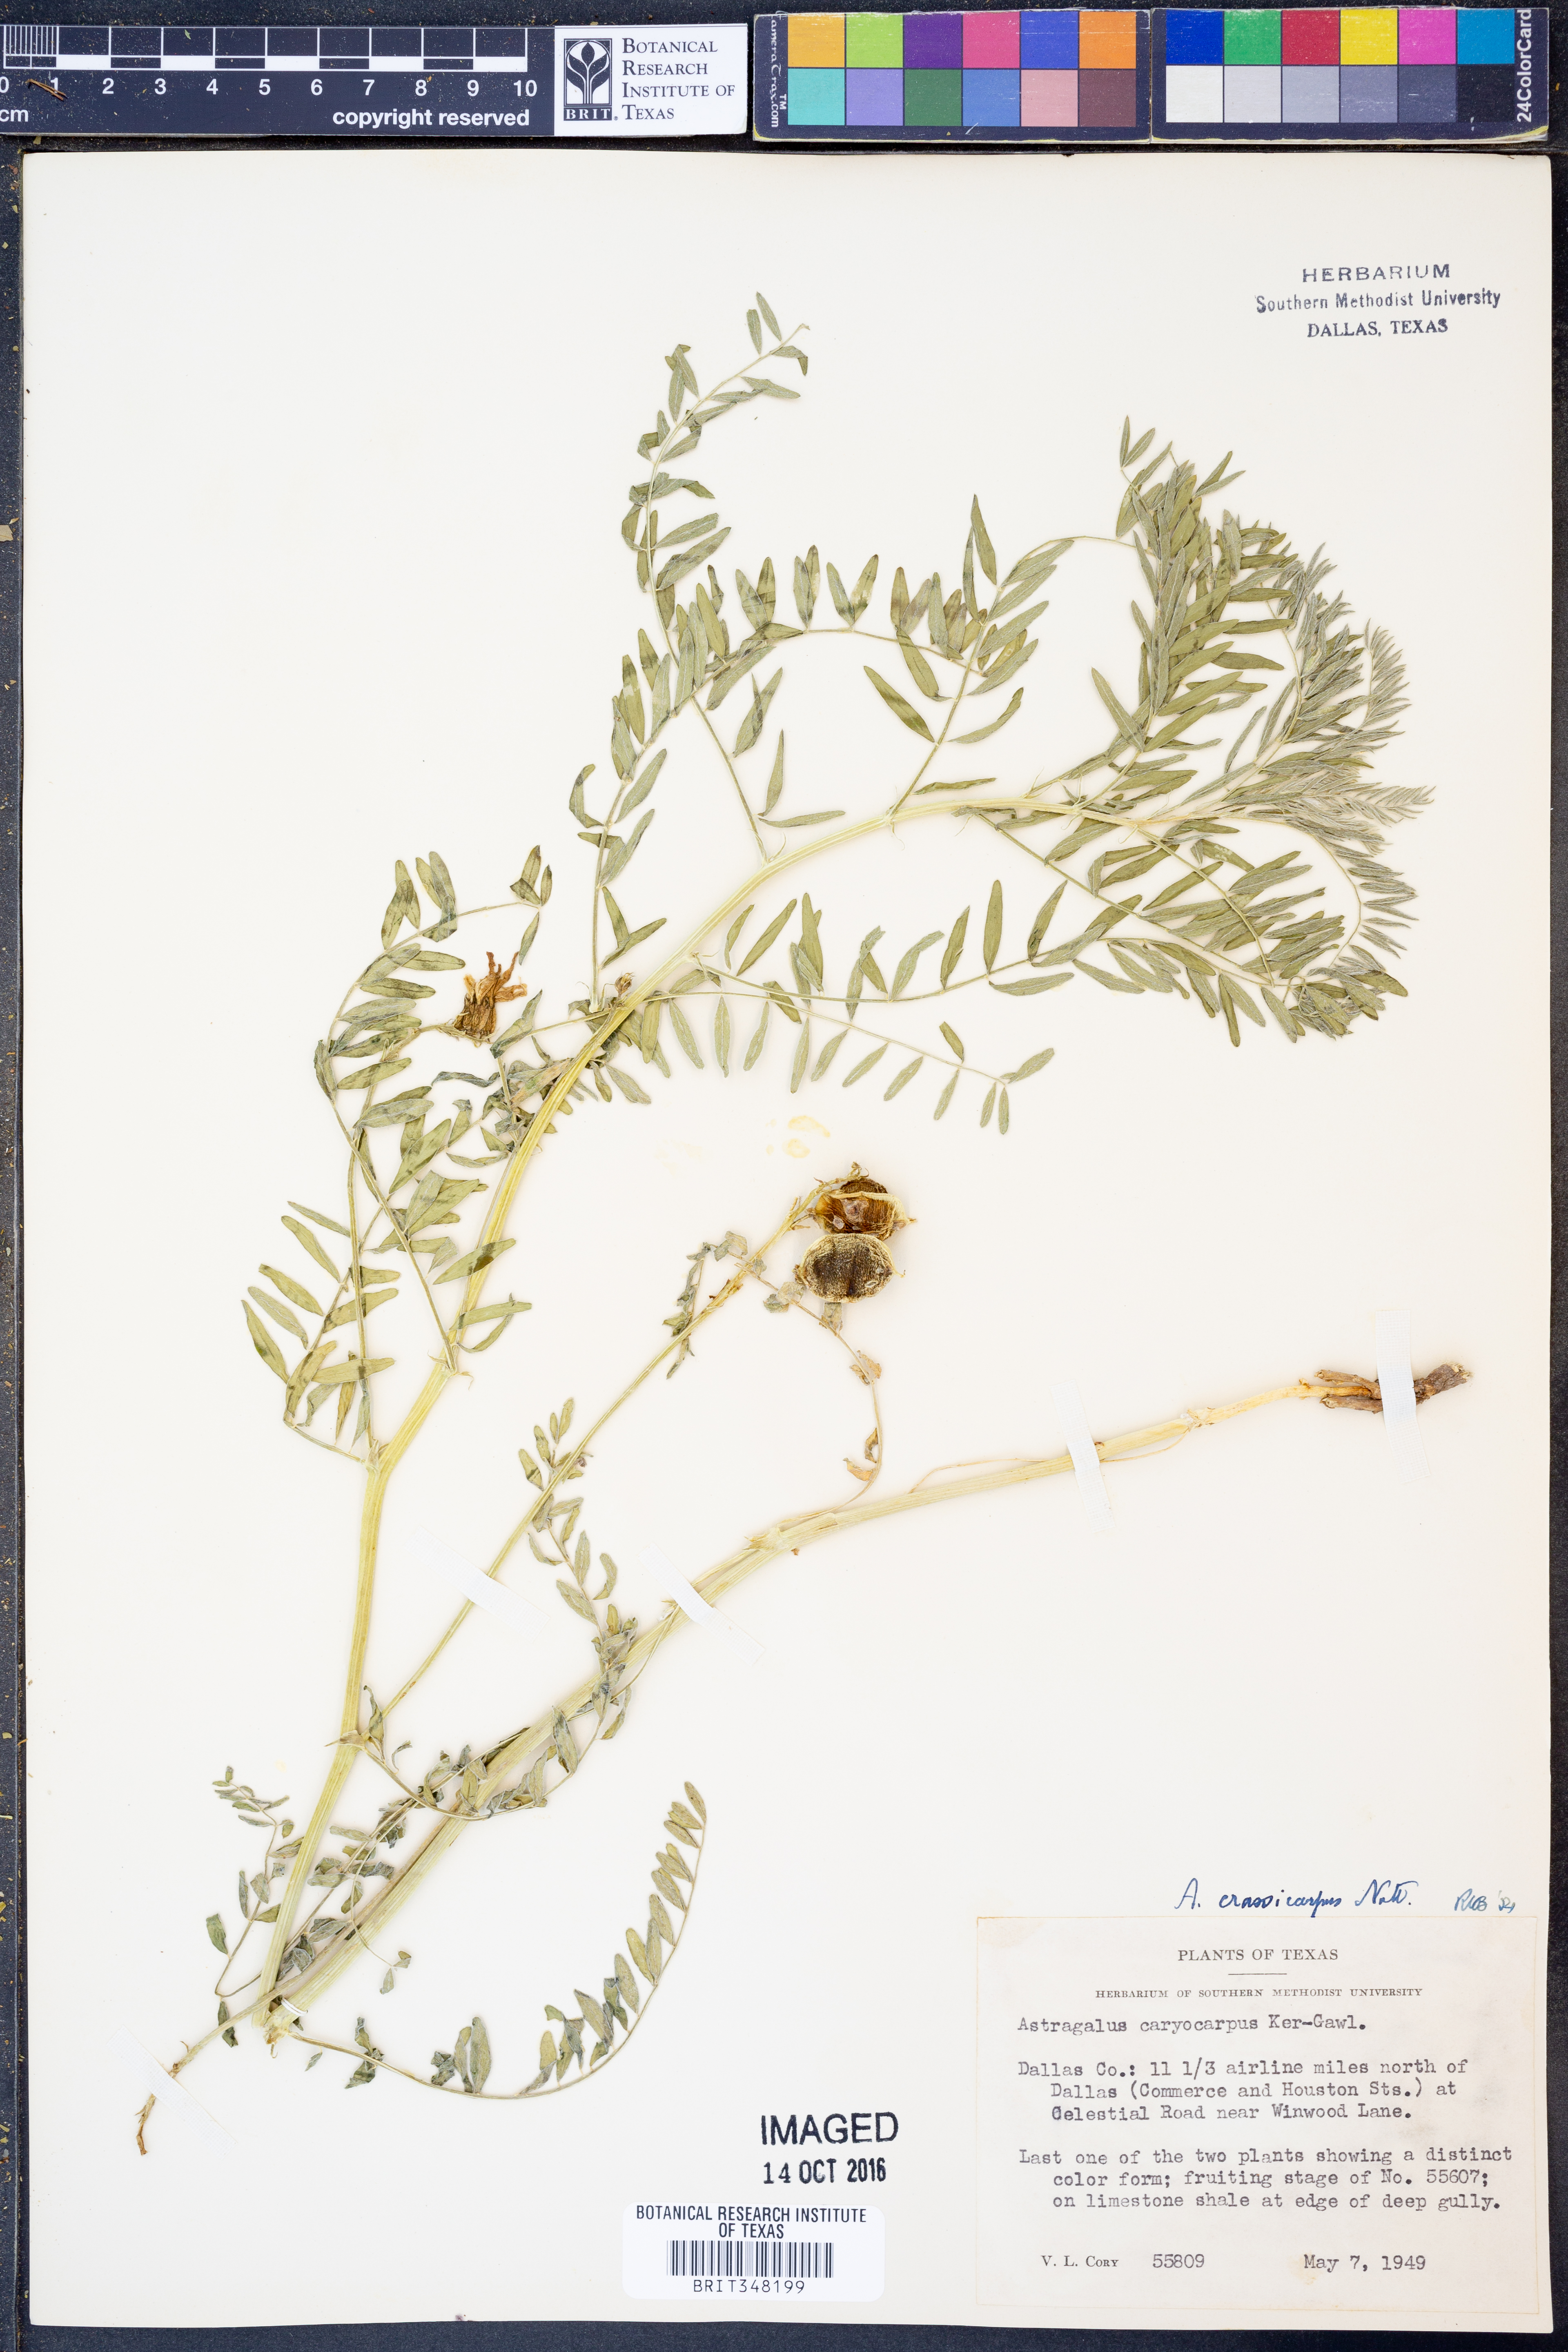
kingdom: Plantae
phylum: Tracheophyta
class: Magnoliopsida
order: Fabales
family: Fabaceae
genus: Astragalus
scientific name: Astragalus crassicarpus
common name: Ground-plum milk-vetch
